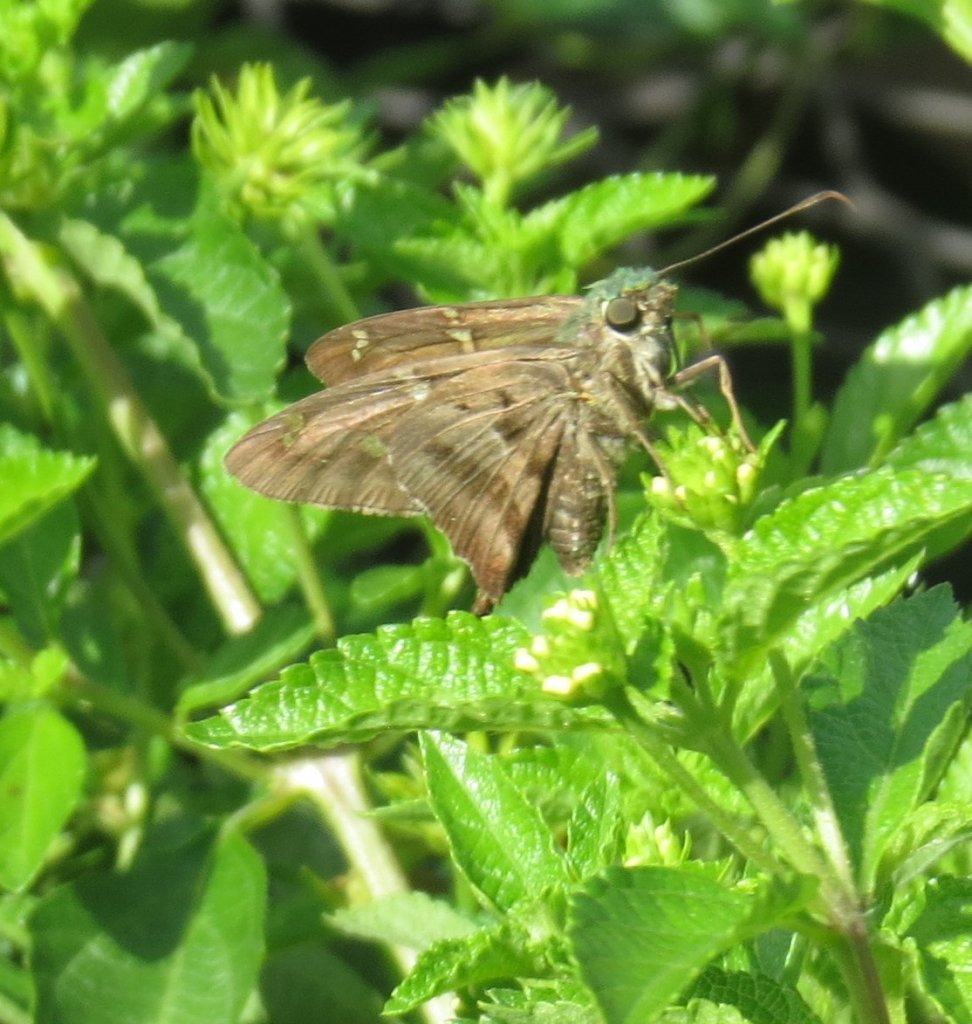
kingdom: Animalia
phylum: Arthropoda
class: Insecta
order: Lepidoptera
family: Hesperiidae
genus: Urbanus
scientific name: Urbanus proteus
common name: Long-tailed Skipper
